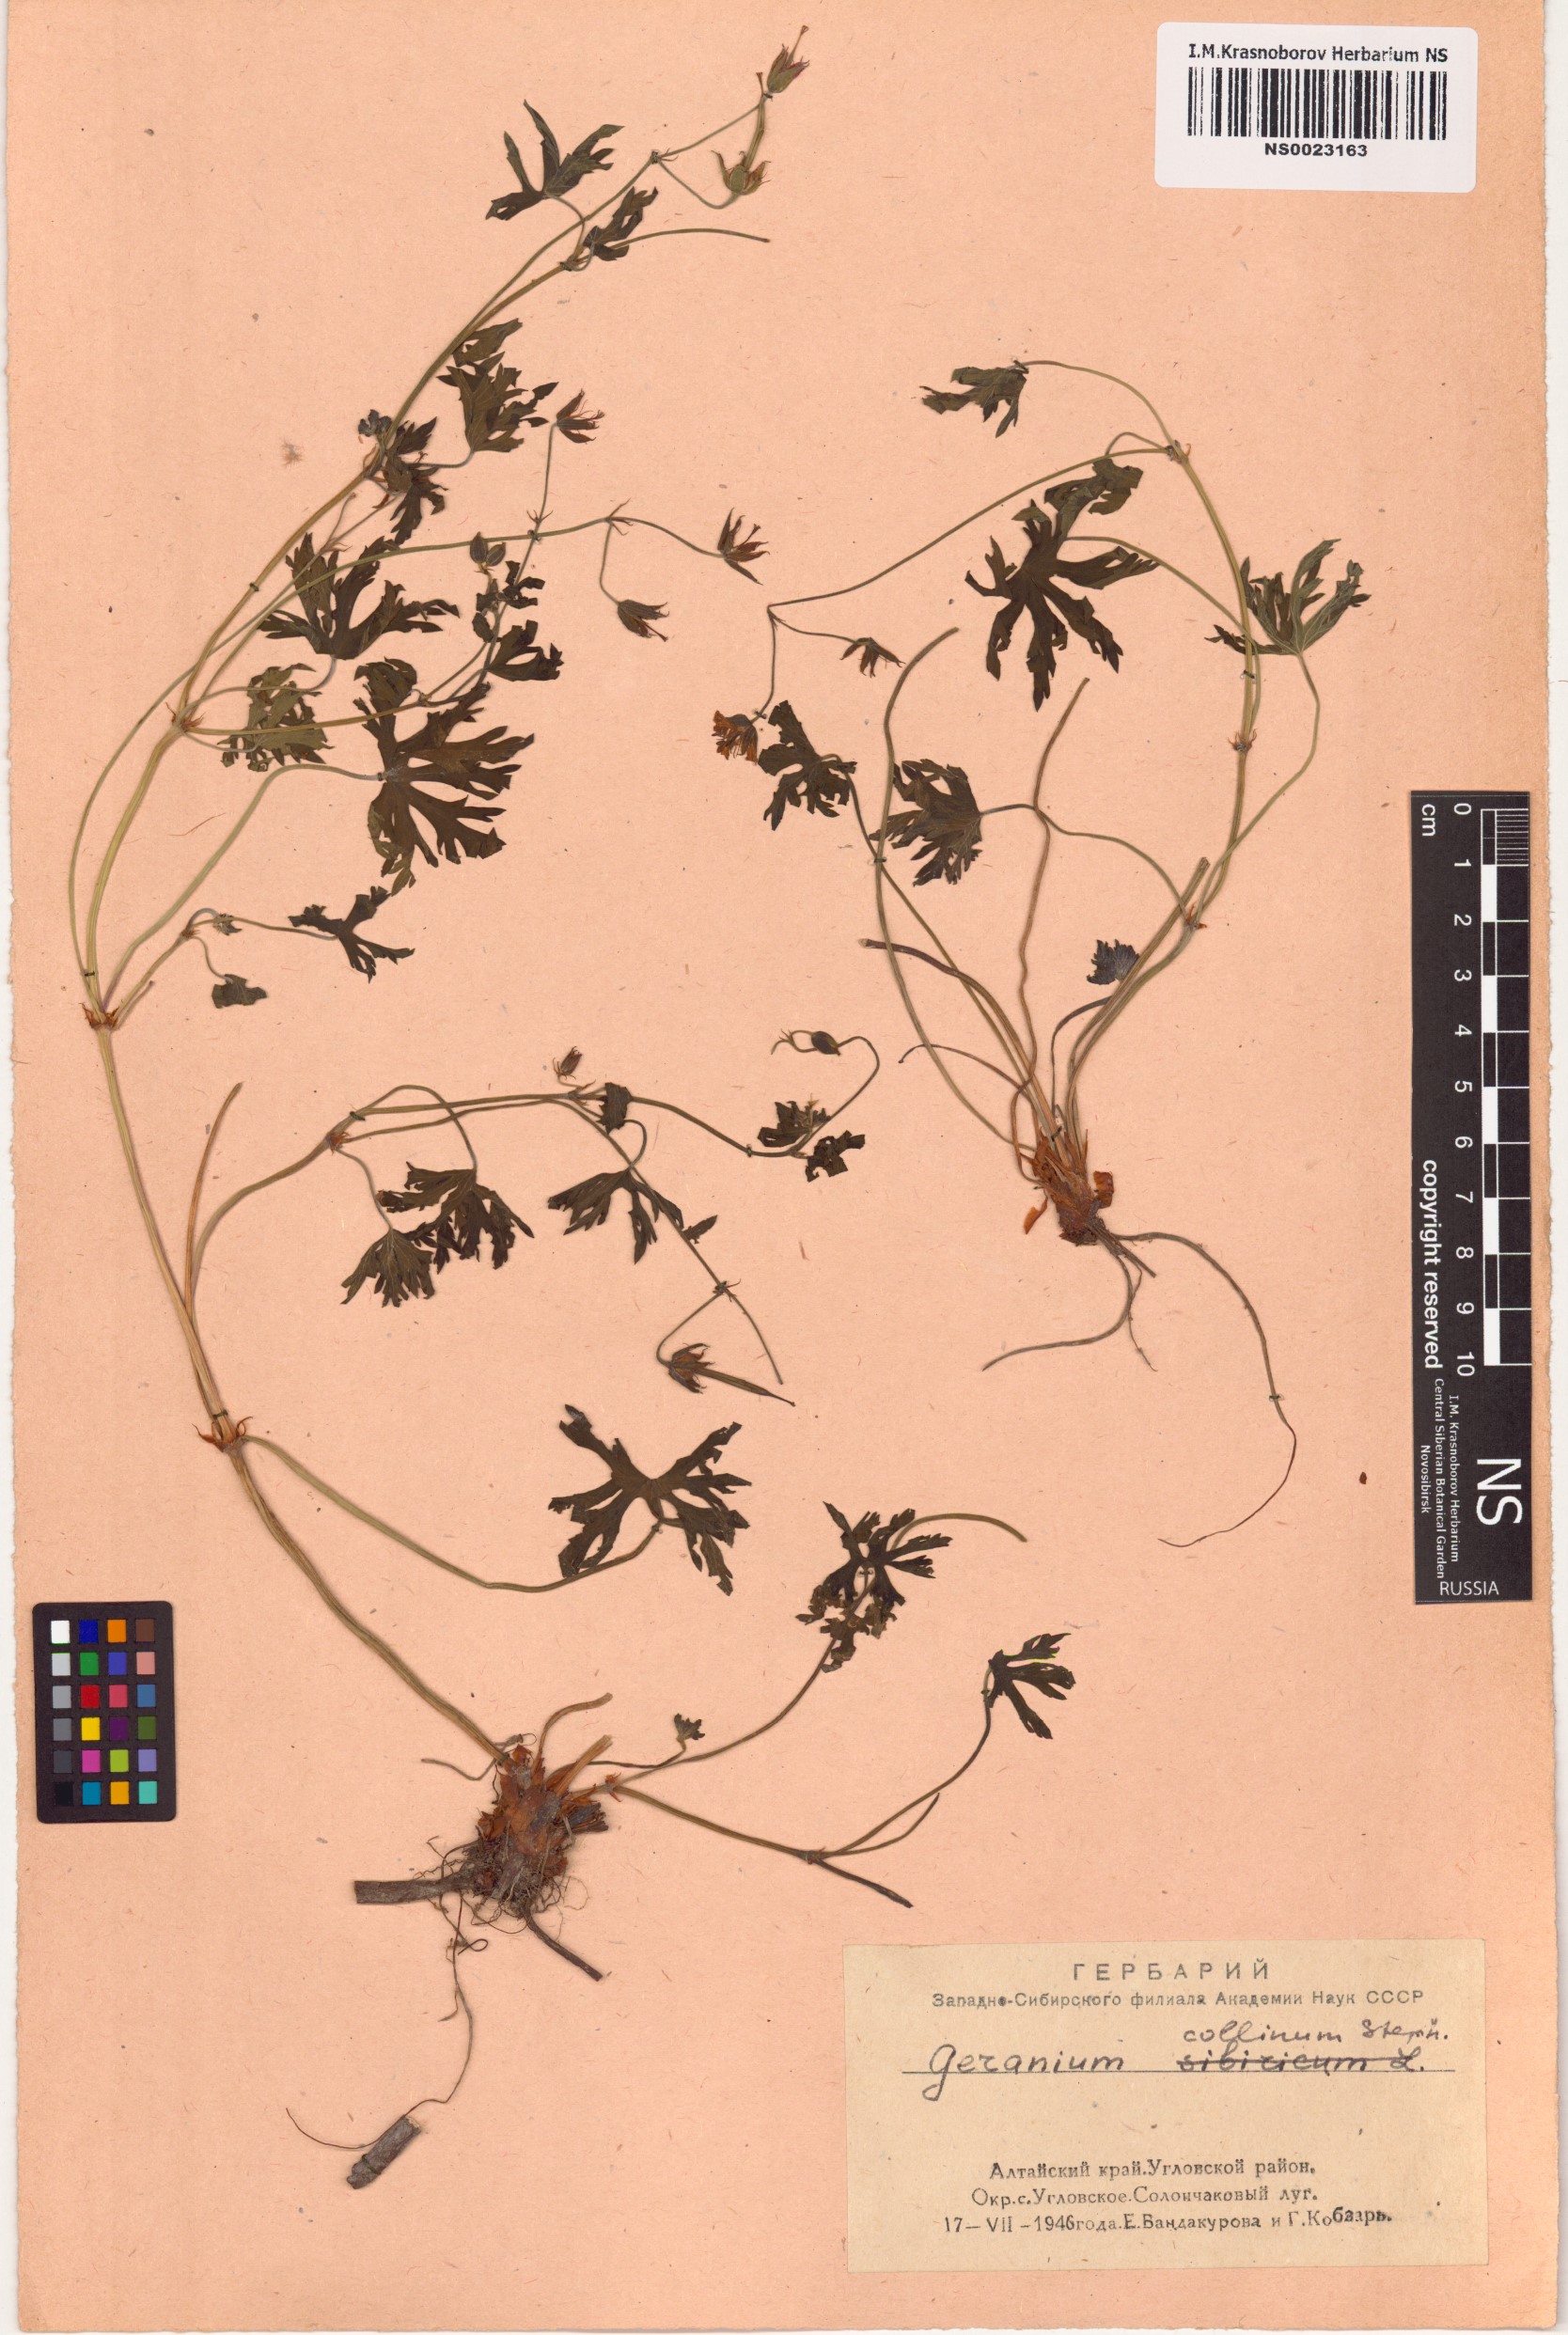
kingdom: Plantae
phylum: Tracheophyta
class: Magnoliopsida
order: Geraniales
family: Geraniaceae
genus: Geranium
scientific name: Geranium collinum
